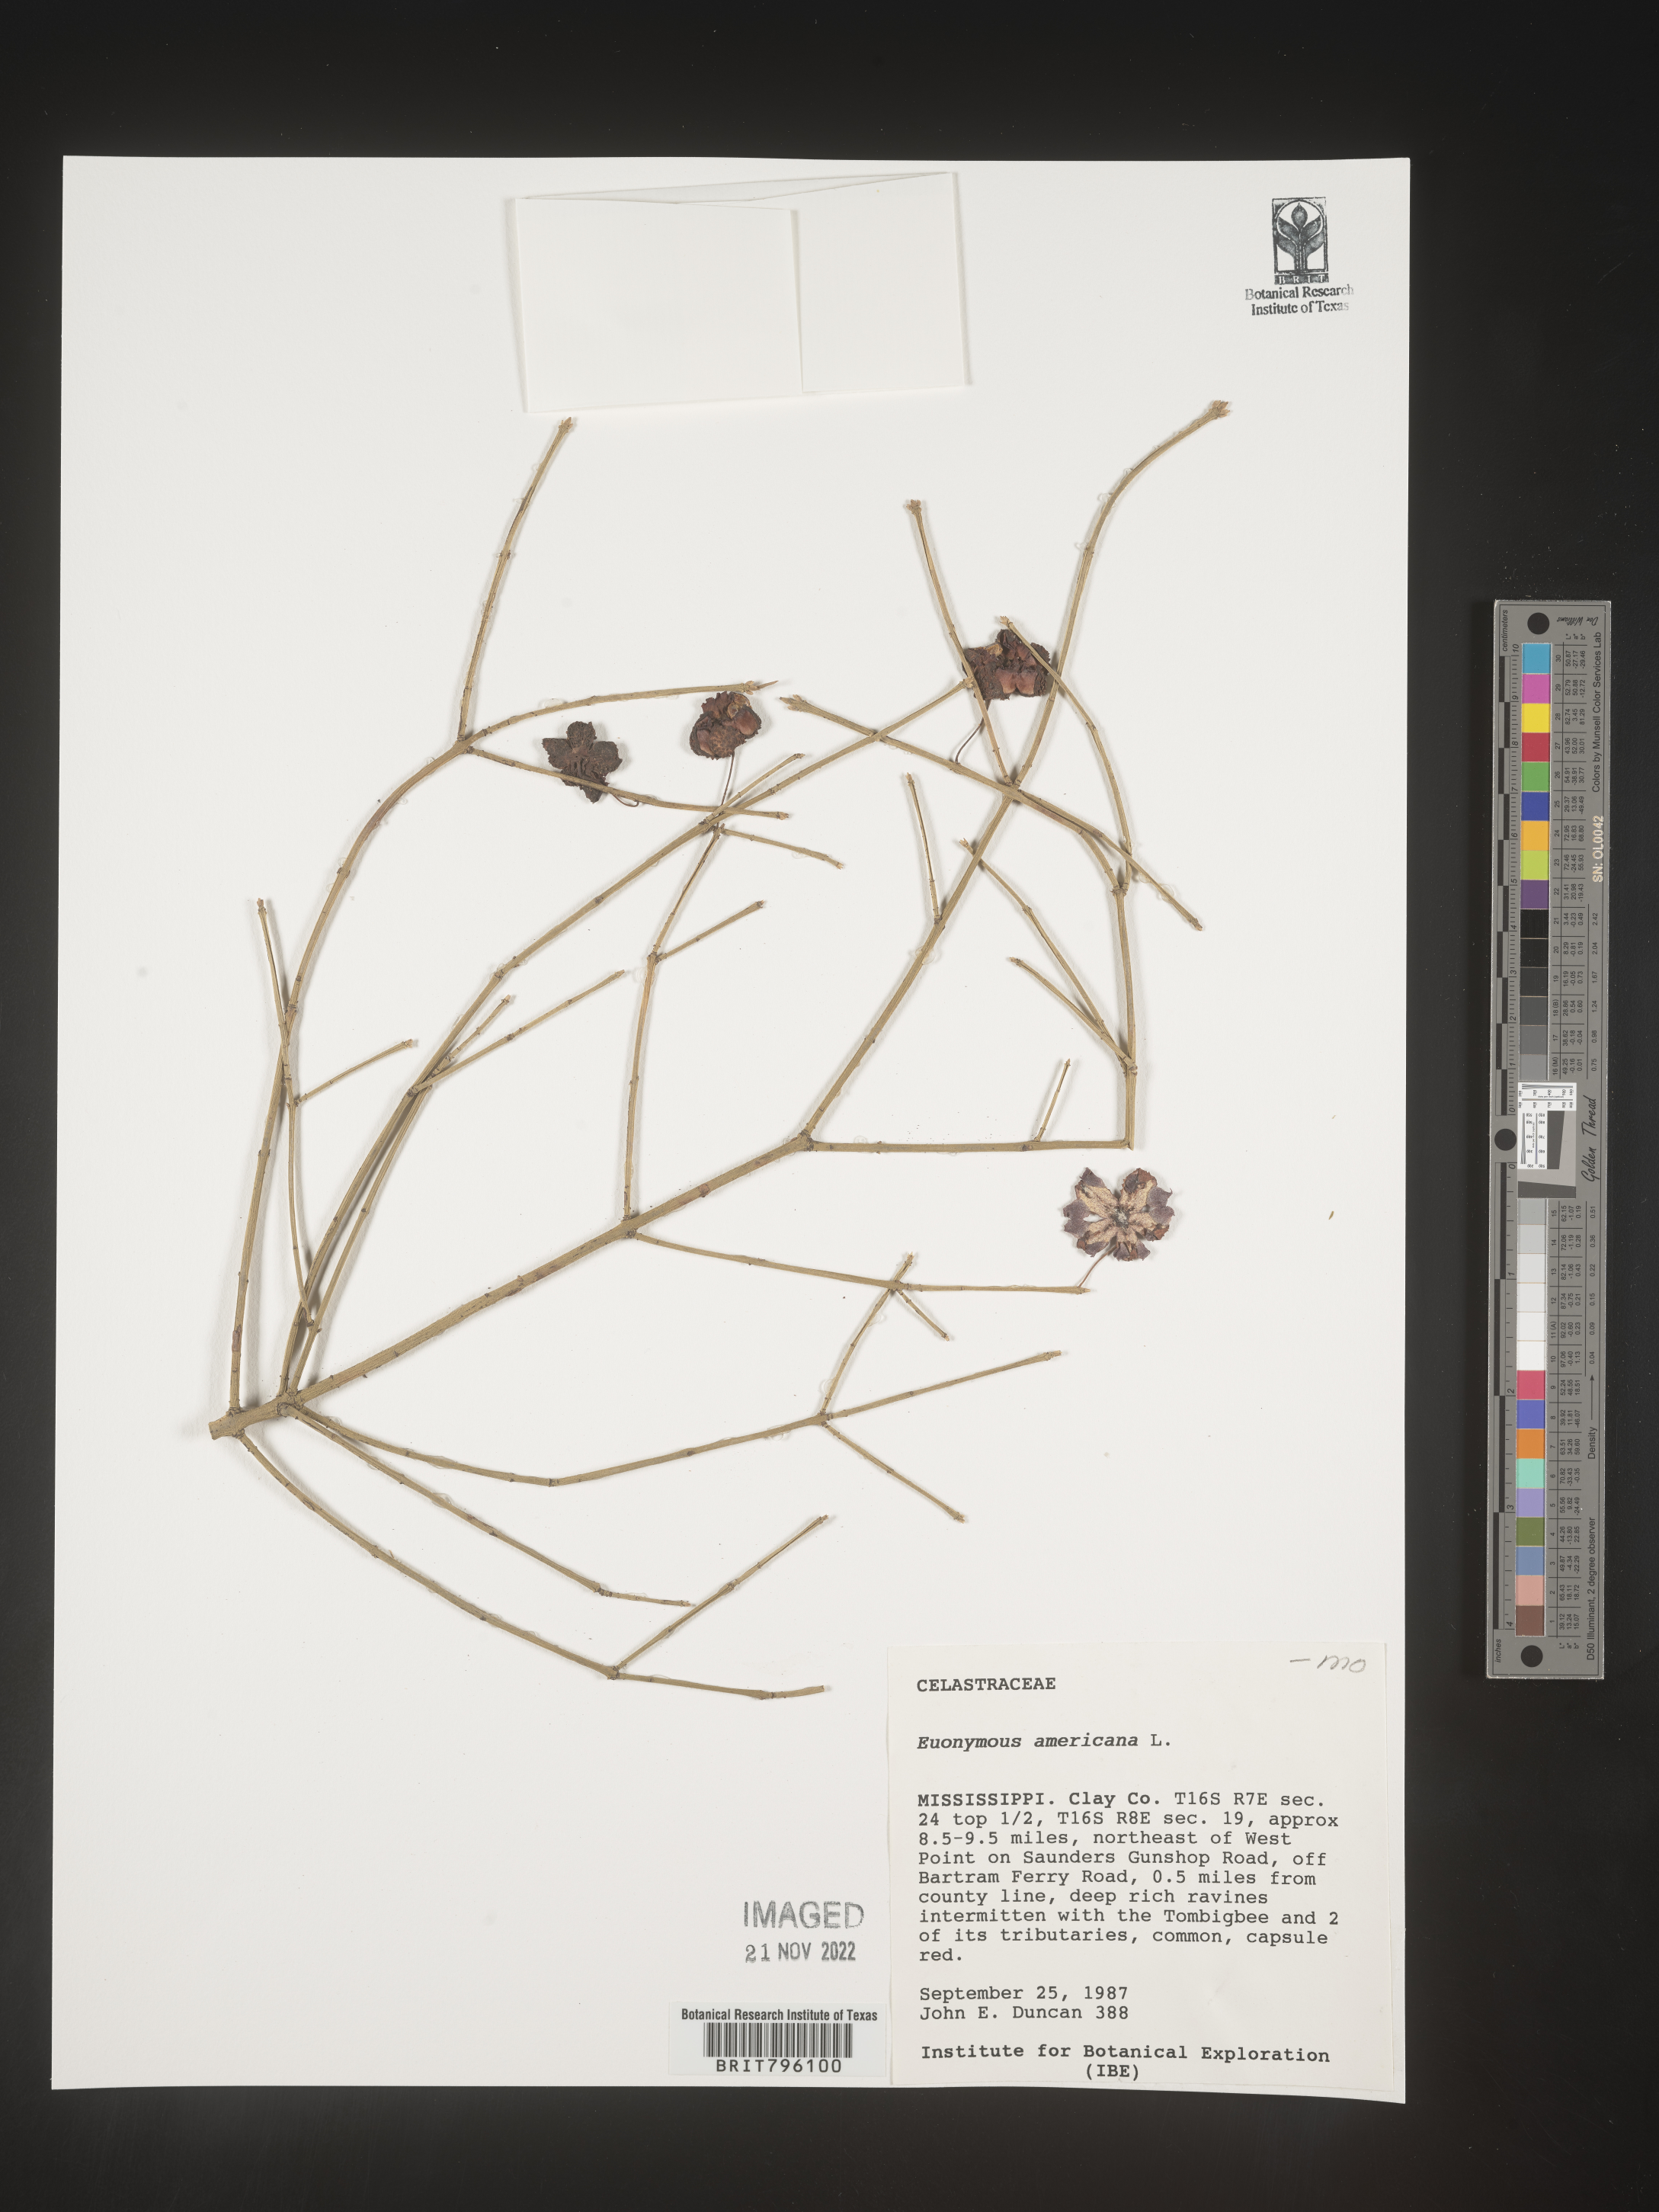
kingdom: Plantae
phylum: Tracheophyta
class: Magnoliopsida
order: Celastrales
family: Celastraceae
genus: Euonymus
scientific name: Euonymus americanus
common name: Bursting-heart
